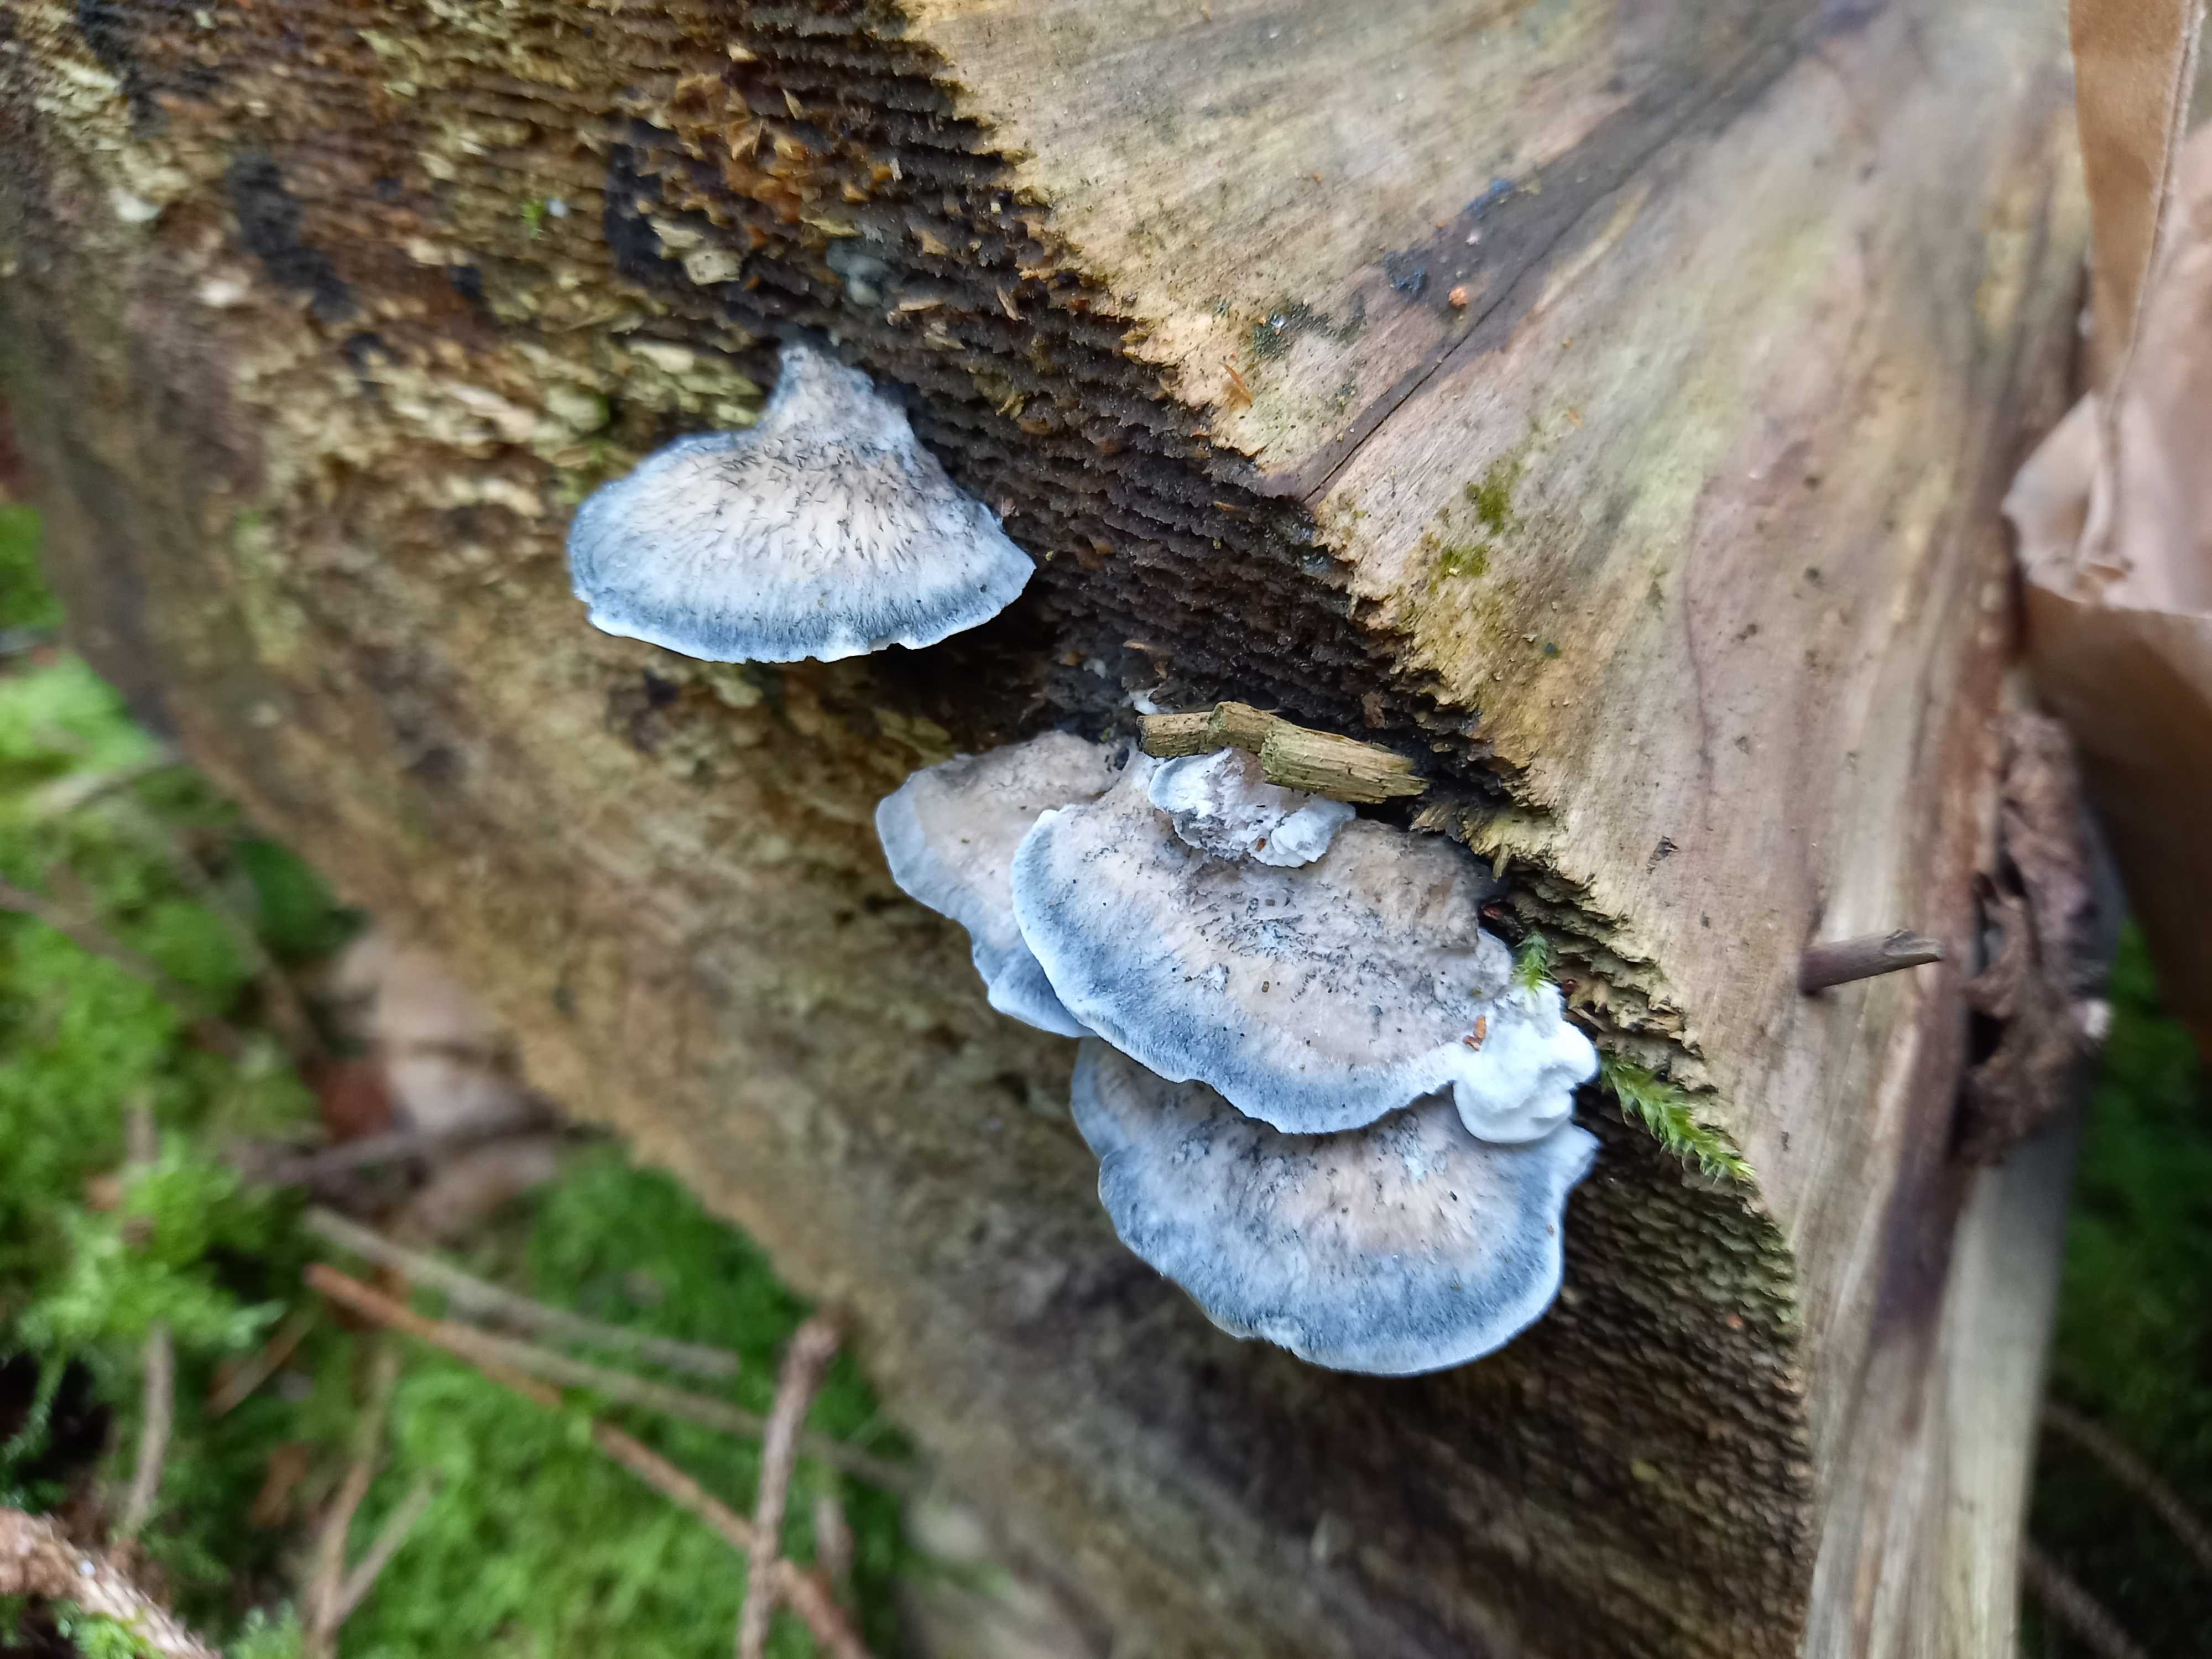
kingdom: Fungi
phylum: Basidiomycota
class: Agaricomycetes
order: Polyporales
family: Polyporaceae
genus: Cyanosporus
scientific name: Cyanosporus caesius
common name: blålig kødporesvamp
